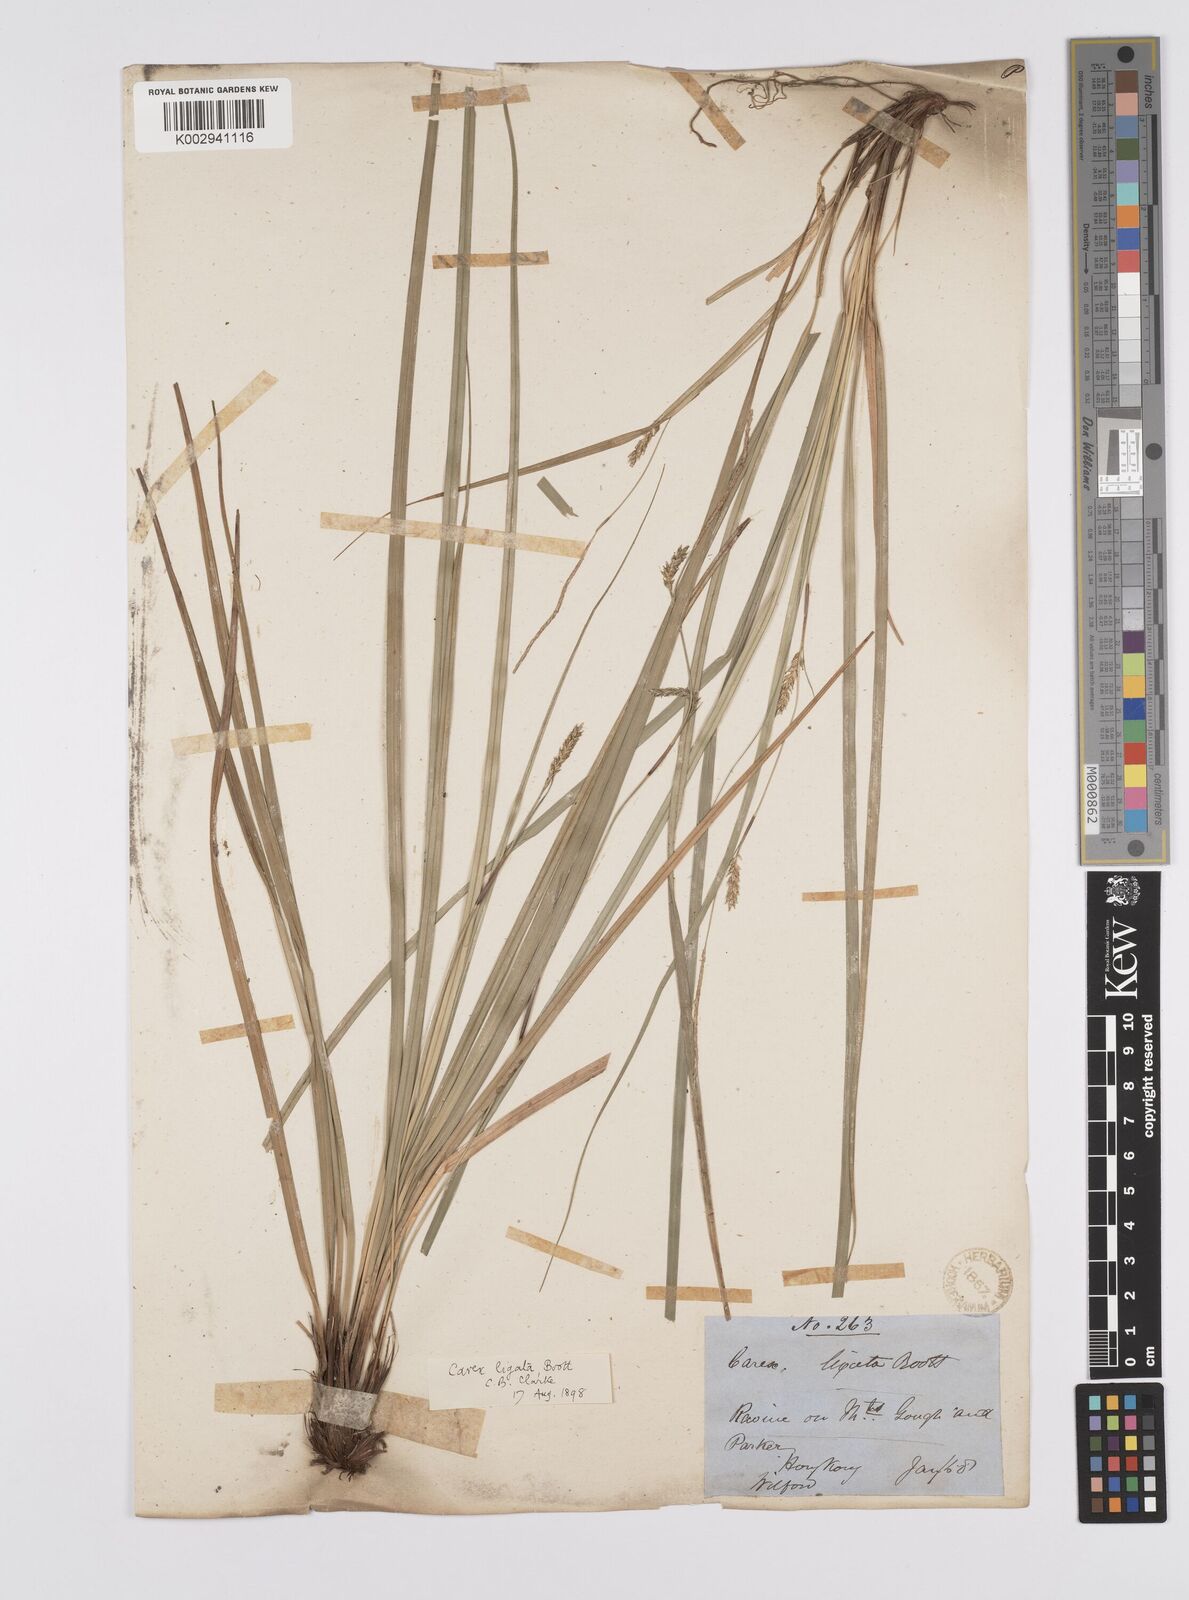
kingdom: Plantae
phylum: Tracheophyta
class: Liliopsida
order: Poales
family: Cyperaceae
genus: Carex
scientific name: Carex ligata
